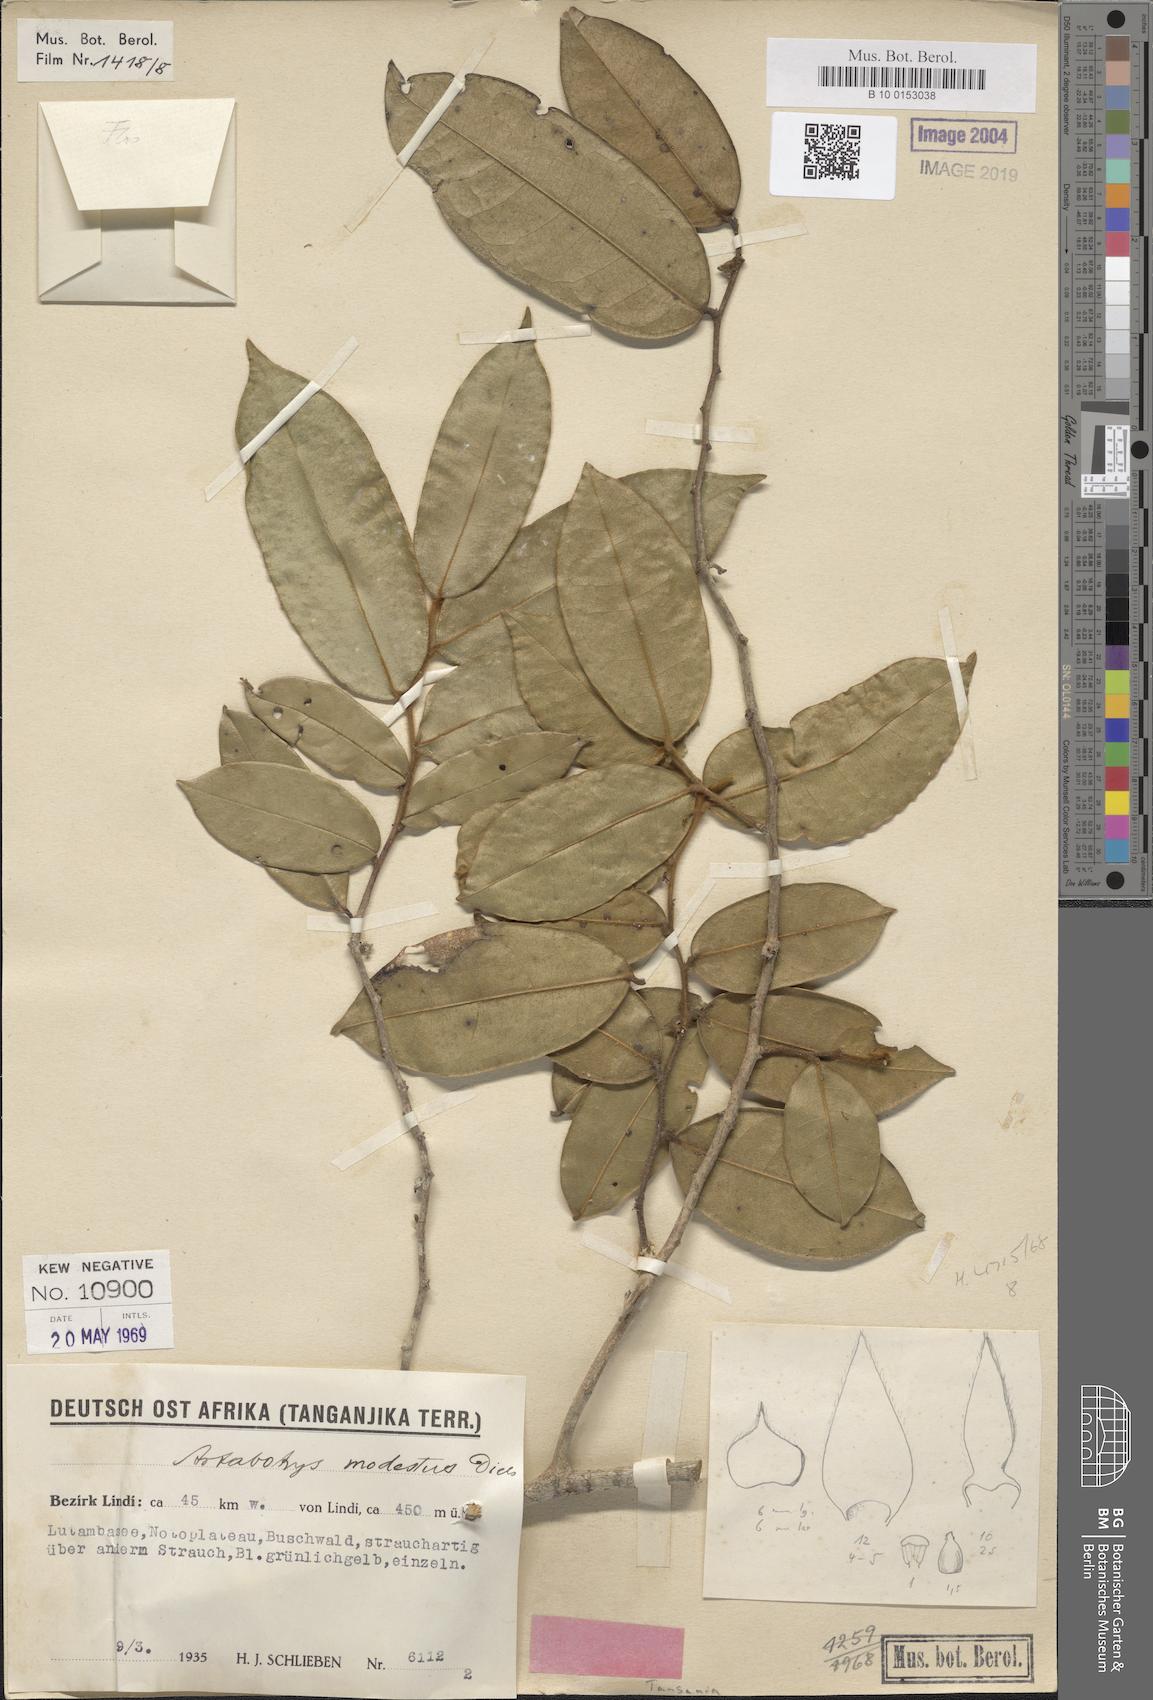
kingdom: Plantae
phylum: Tracheophyta
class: Magnoliopsida
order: Magnoliales
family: Annonaceae
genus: Artabotrys
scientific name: Artabotrys modestus
